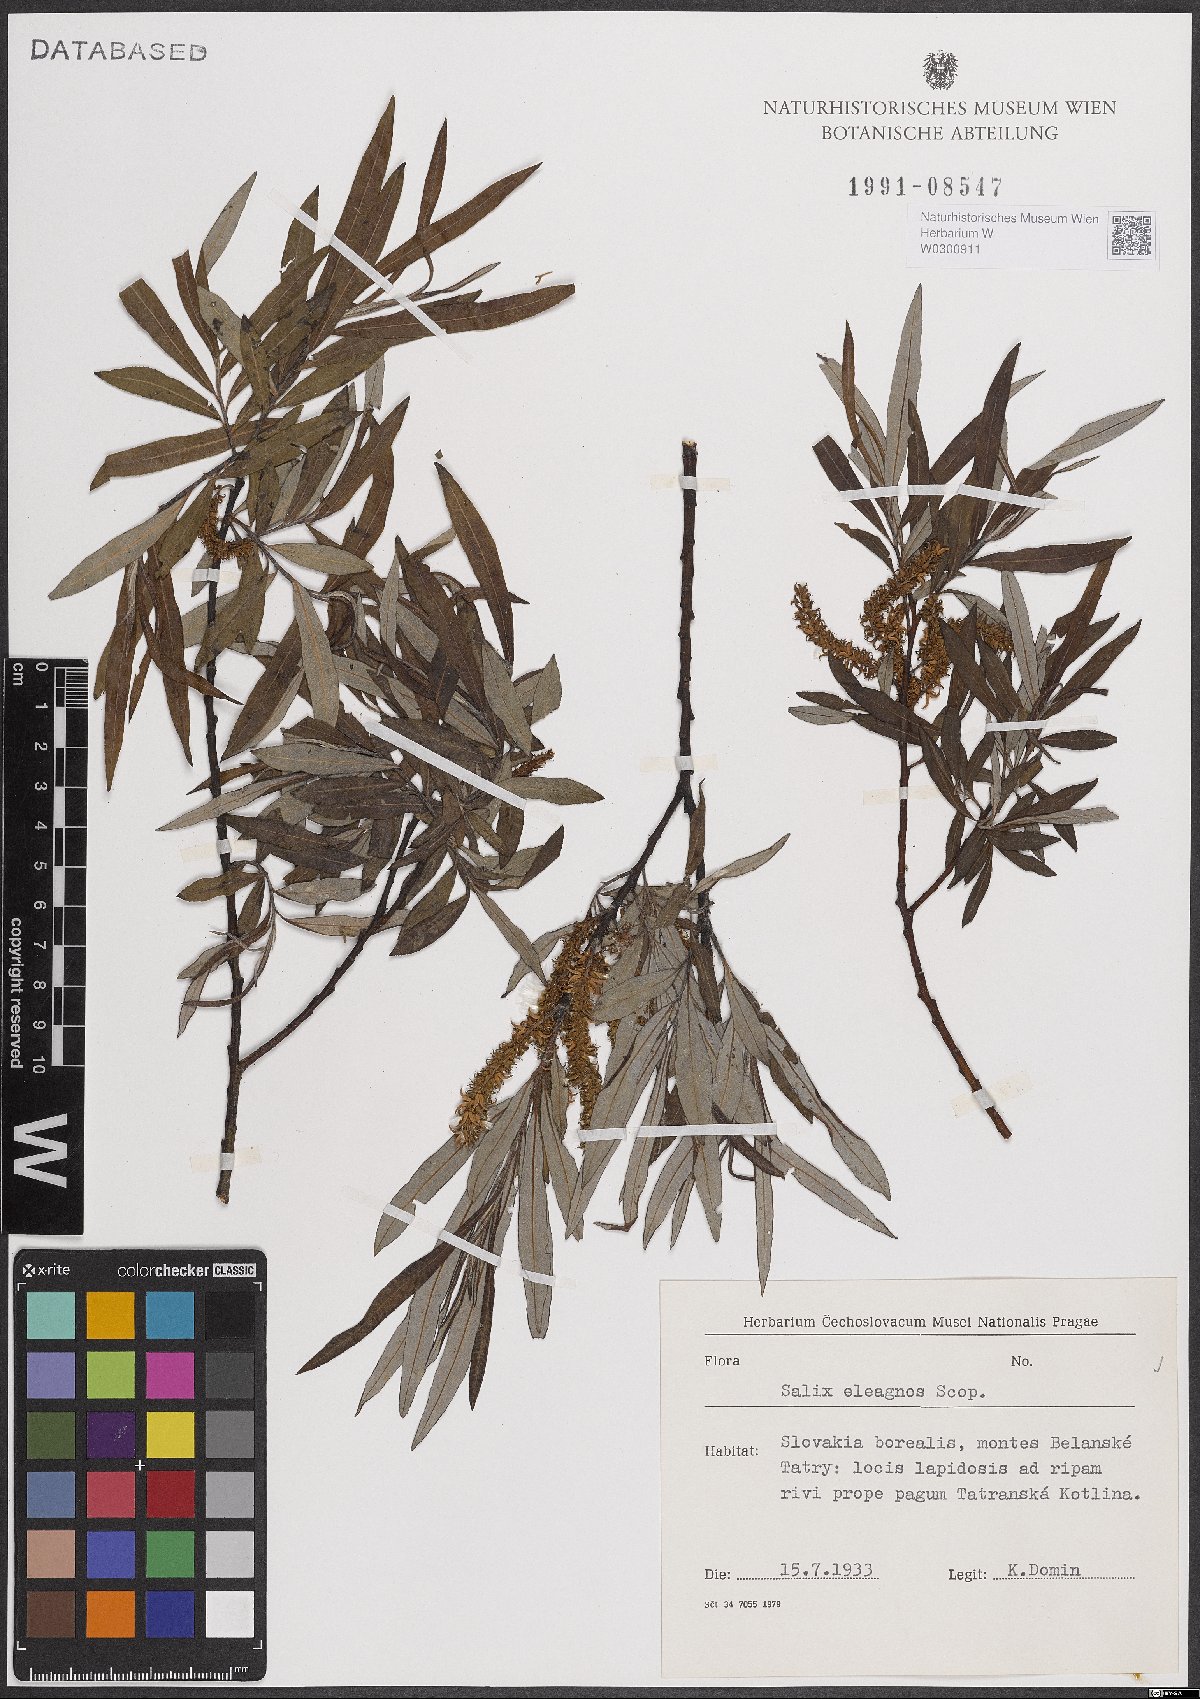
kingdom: Plantae
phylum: Tracheophyta
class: Magnoliopsida
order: Malpighiales
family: Salicaceae
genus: Salix
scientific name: Salix eleagnos
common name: Elaeagnus willow
